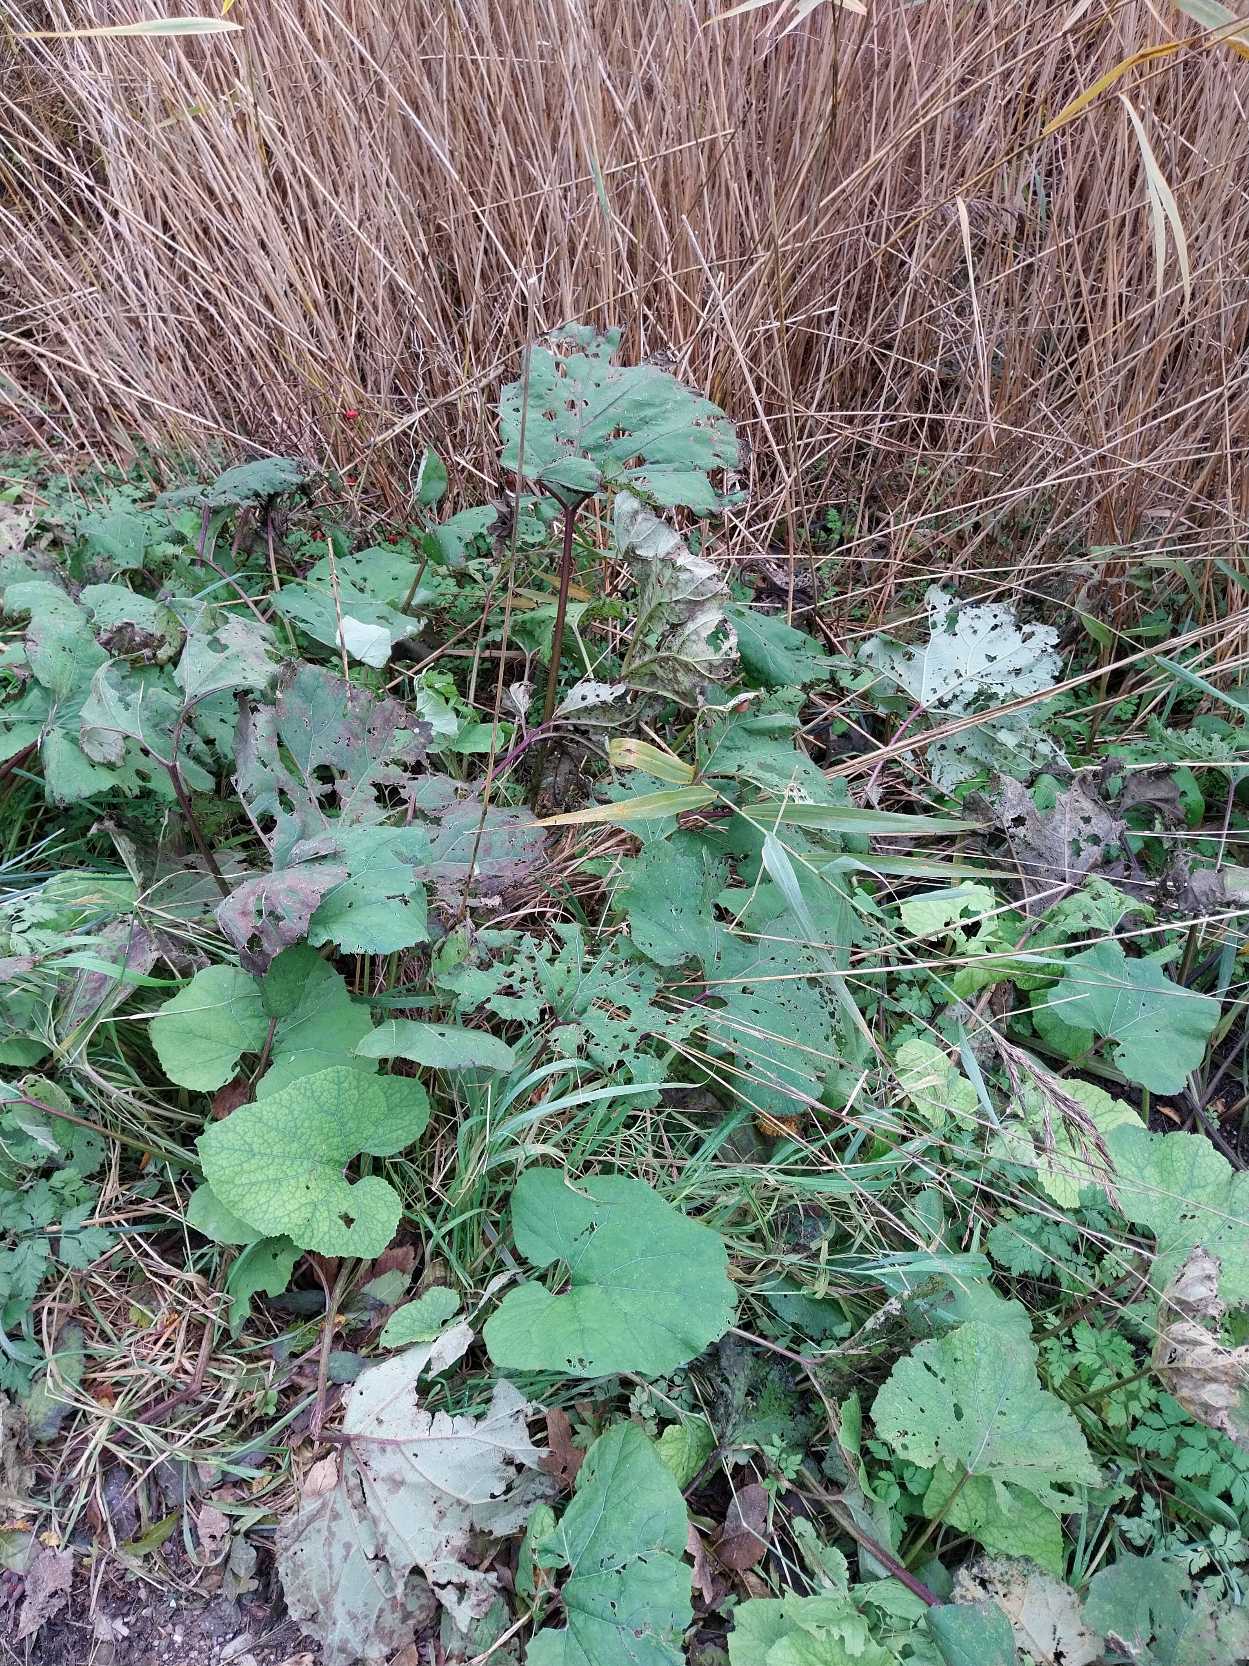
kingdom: Plantae
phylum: Tracheophyta
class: Magnoliopsida
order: Asterales
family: Asteraceae
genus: Petasites
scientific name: Petasites hybridus
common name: Rød hestehov
